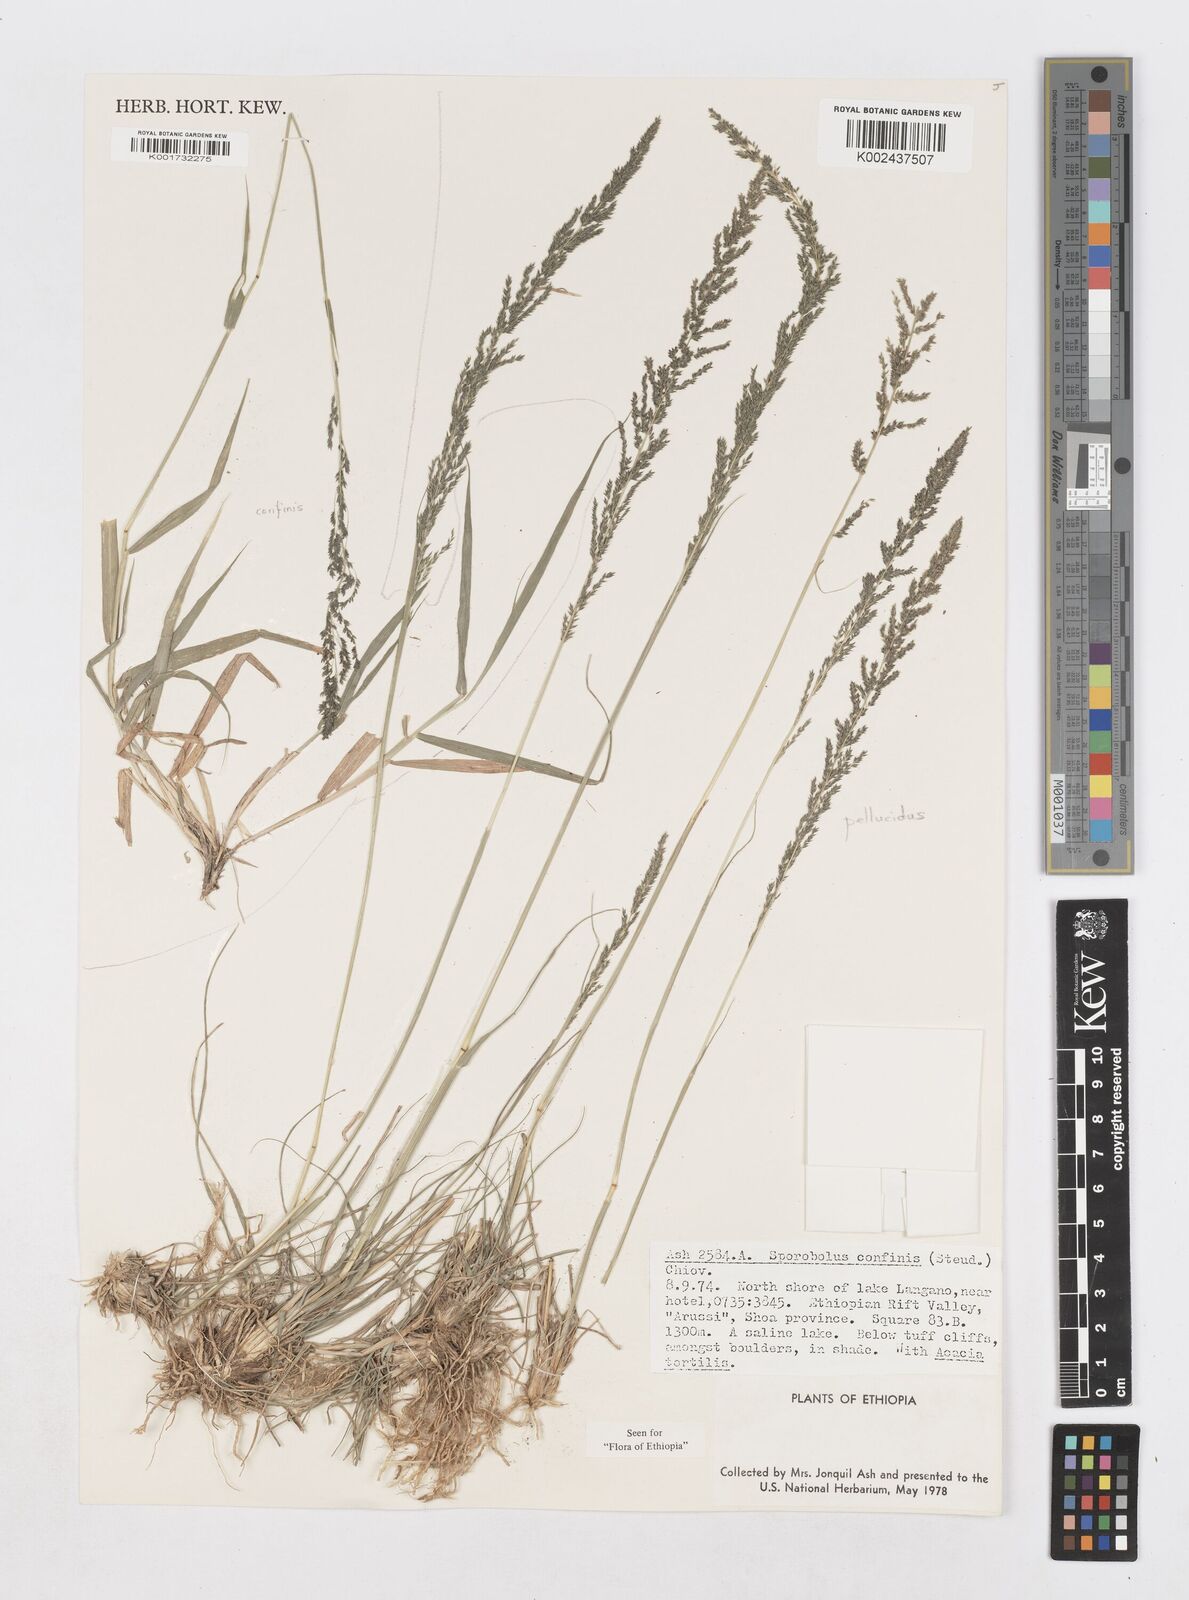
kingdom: Plantae
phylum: Tracheophyta
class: Liliopsida
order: Poales
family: Poaceae
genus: Sporobolus
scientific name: Sporobolus confinis
